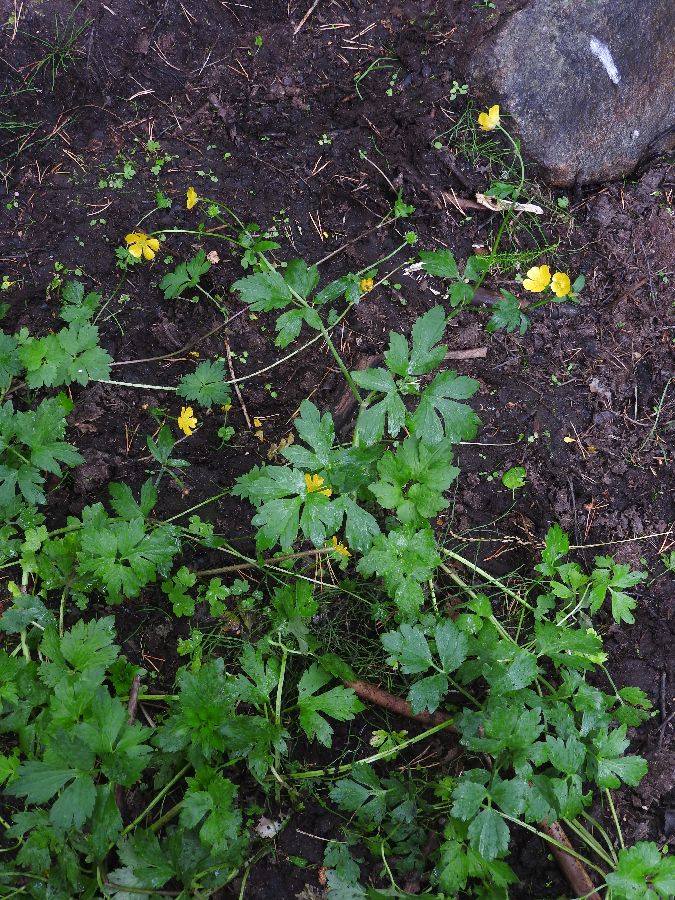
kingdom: Plantae
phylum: Tracheophyta
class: Magnoliopsida
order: Ranunculales
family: Ranunculaceae
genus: Ranunculus
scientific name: Ranunculus repens
